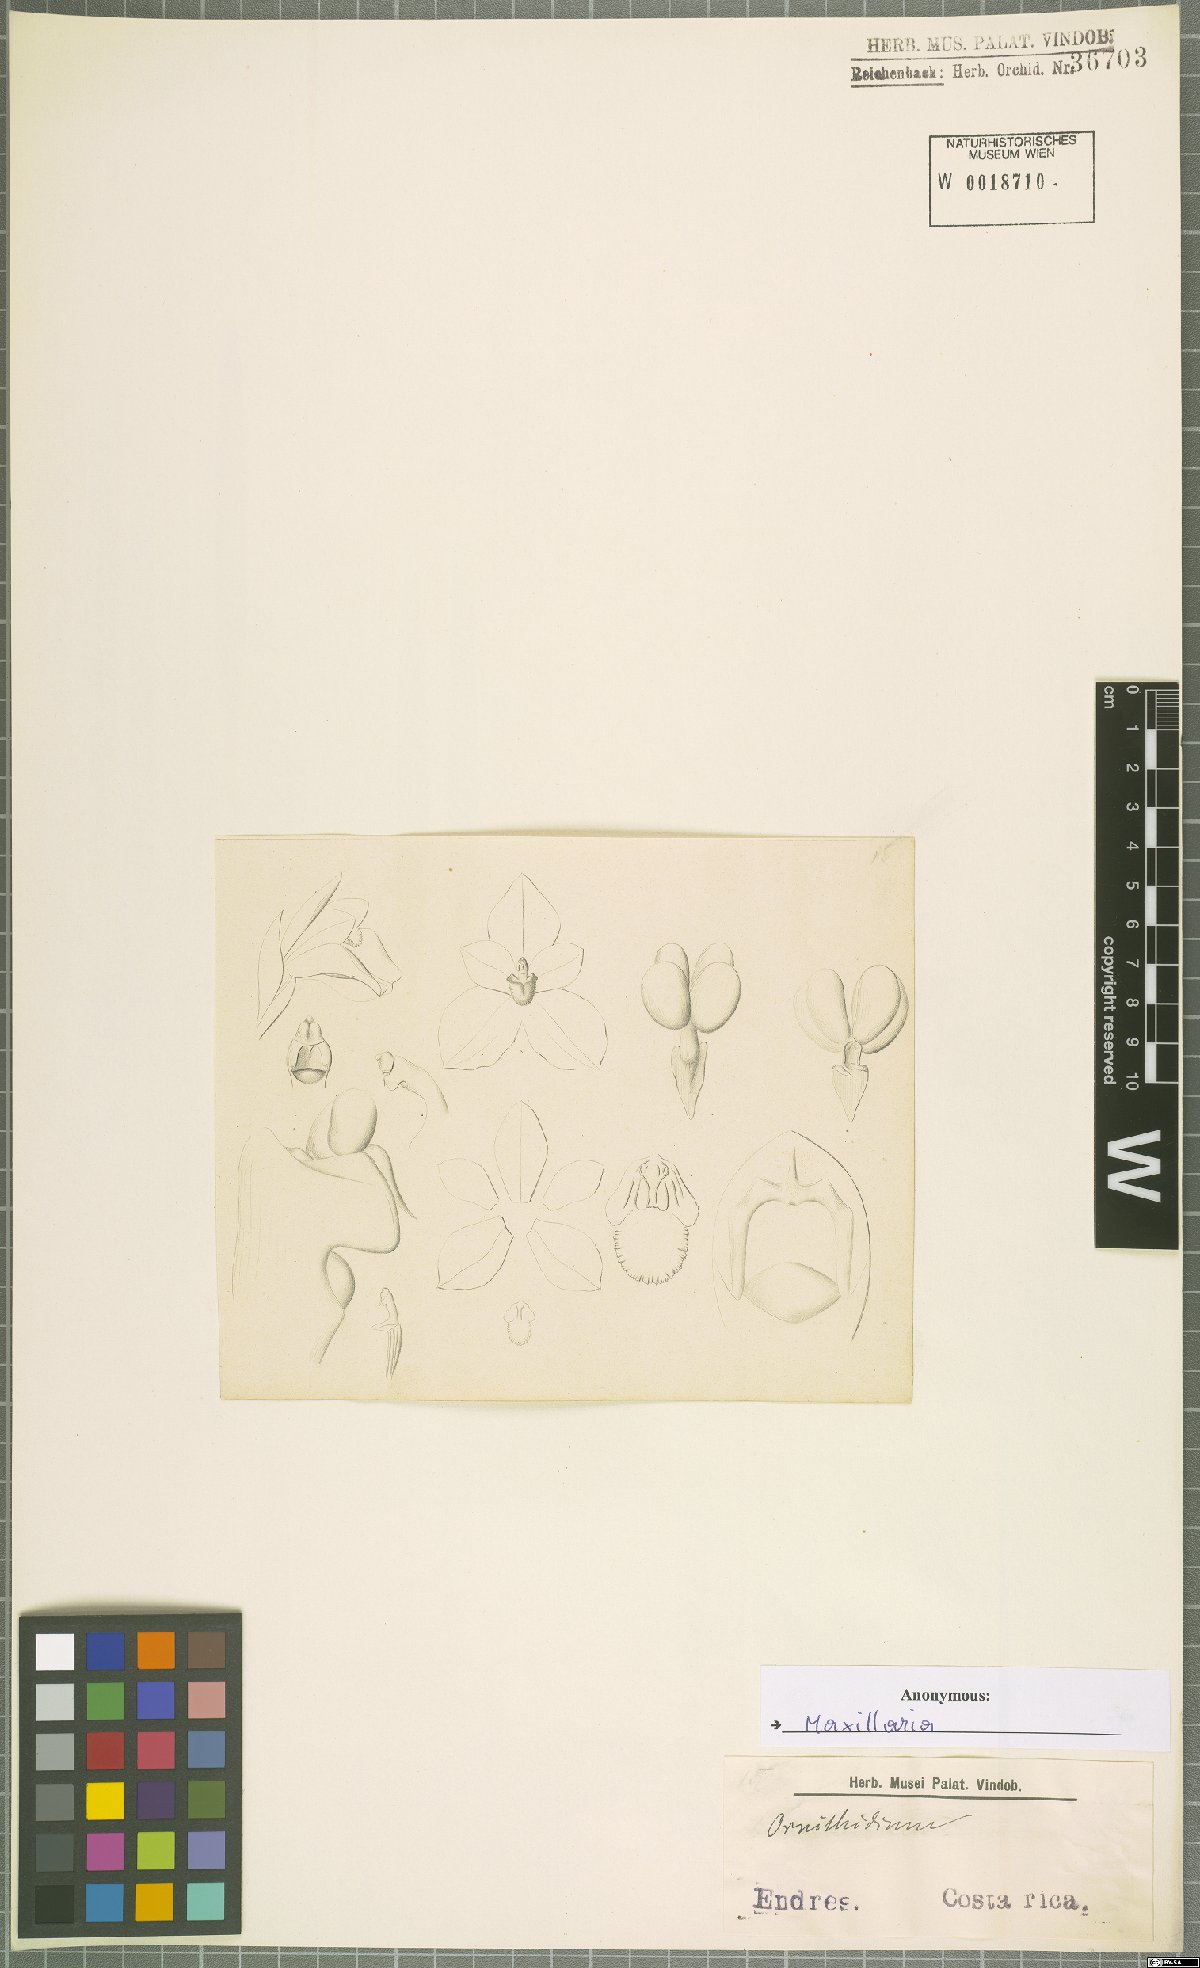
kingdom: Plantae
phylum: Tracheophyta
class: Liliopsida
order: Asparagales
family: Orchidaceae
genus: Maxillaria
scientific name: Maxillaria
